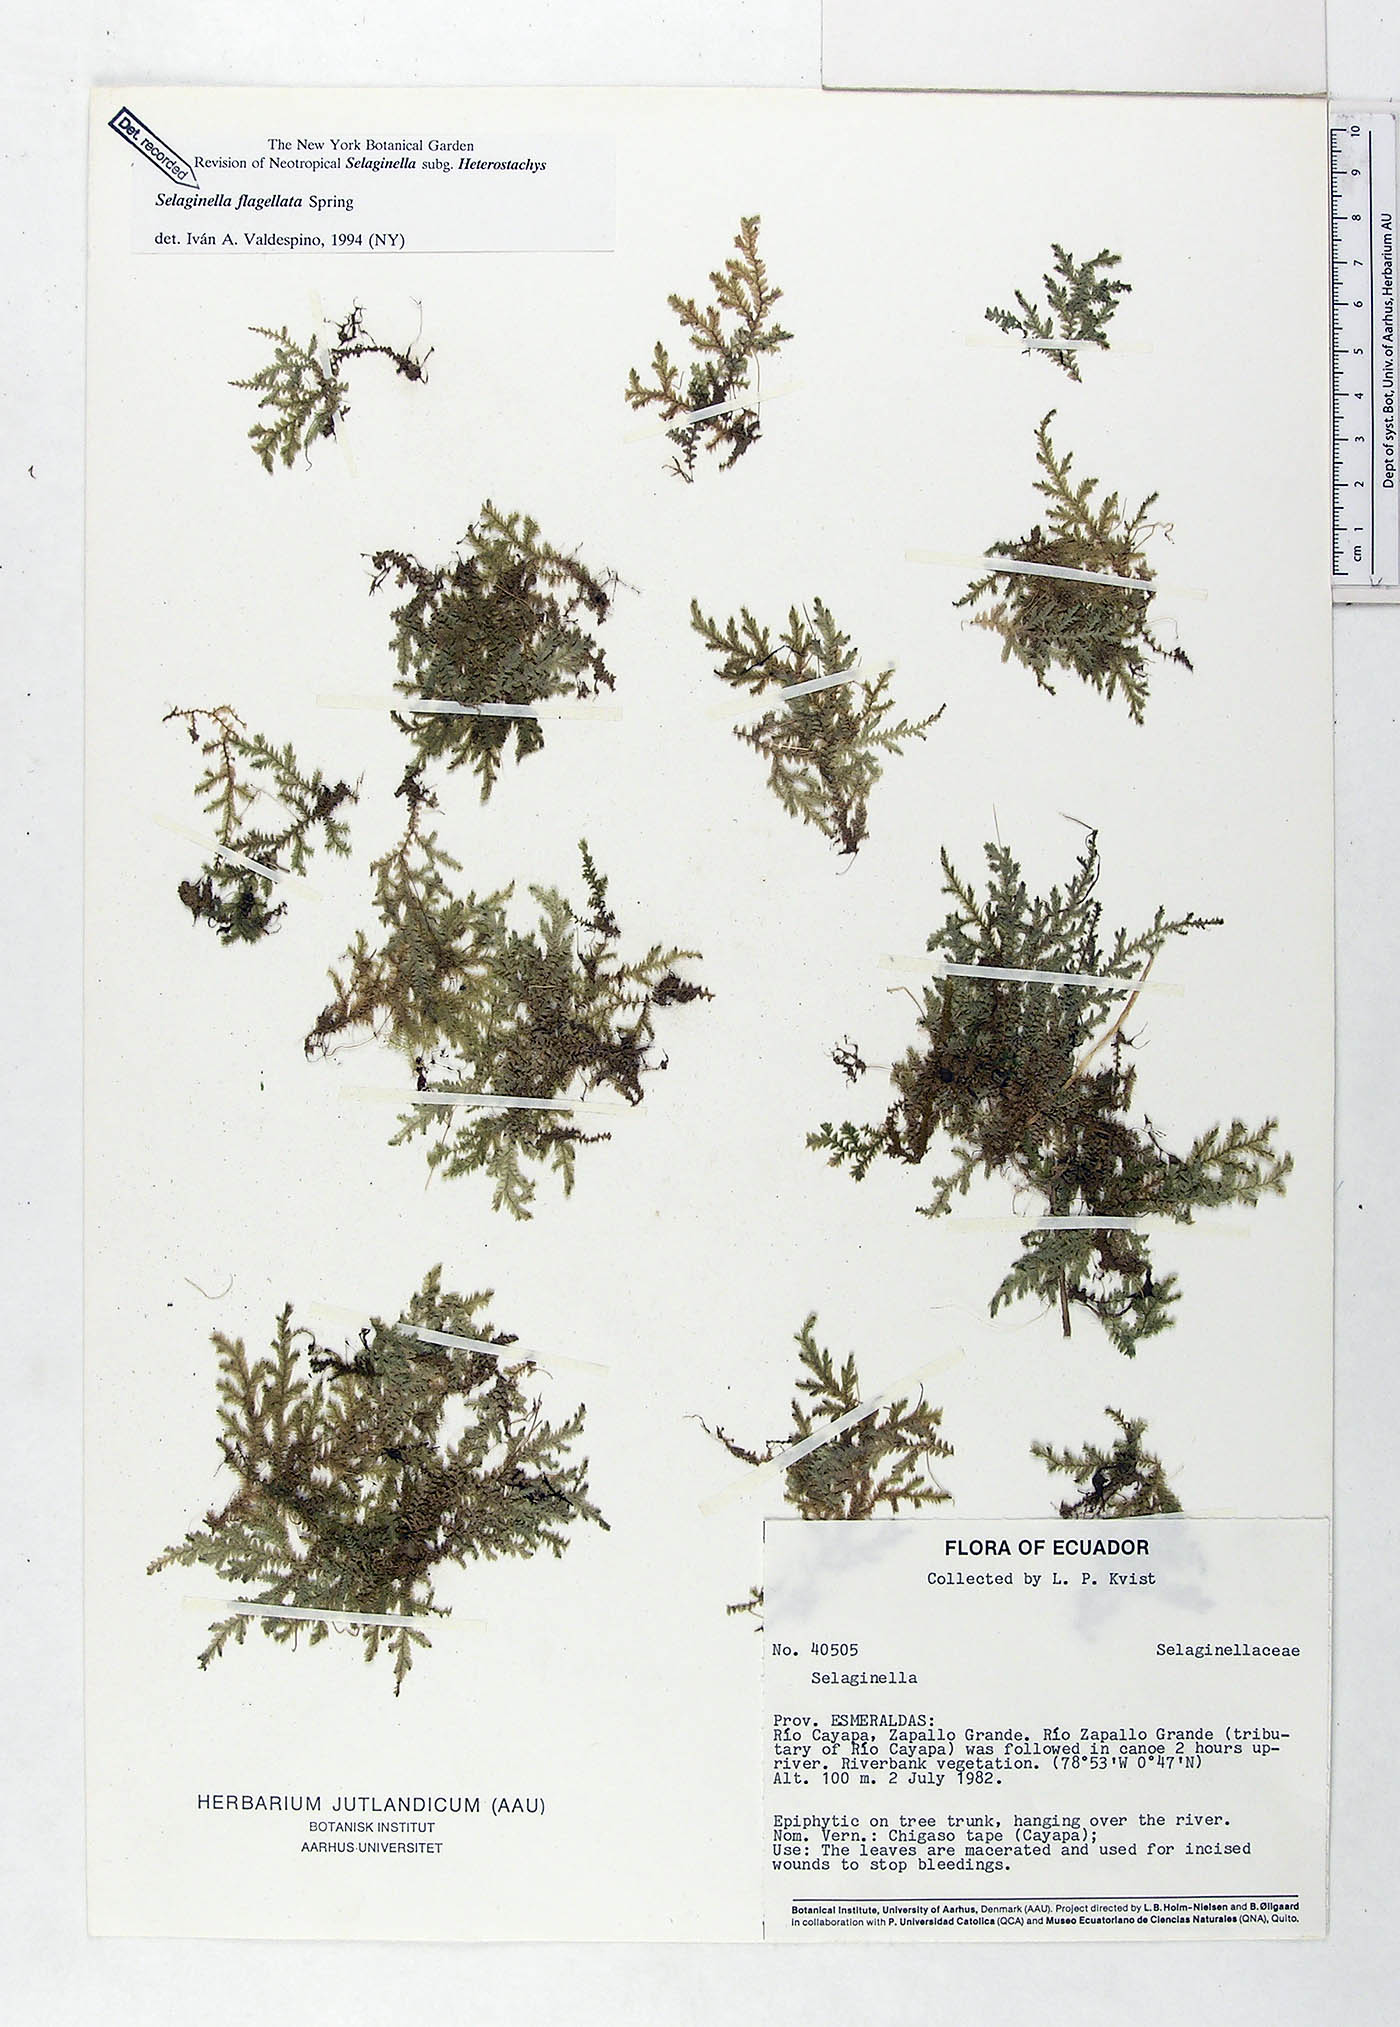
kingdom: Plantae
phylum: Tracheophyta
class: Lycopodiopsida
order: Selaginellales
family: Selaginellaceae
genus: Selaginella
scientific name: Selaginella flagellata
